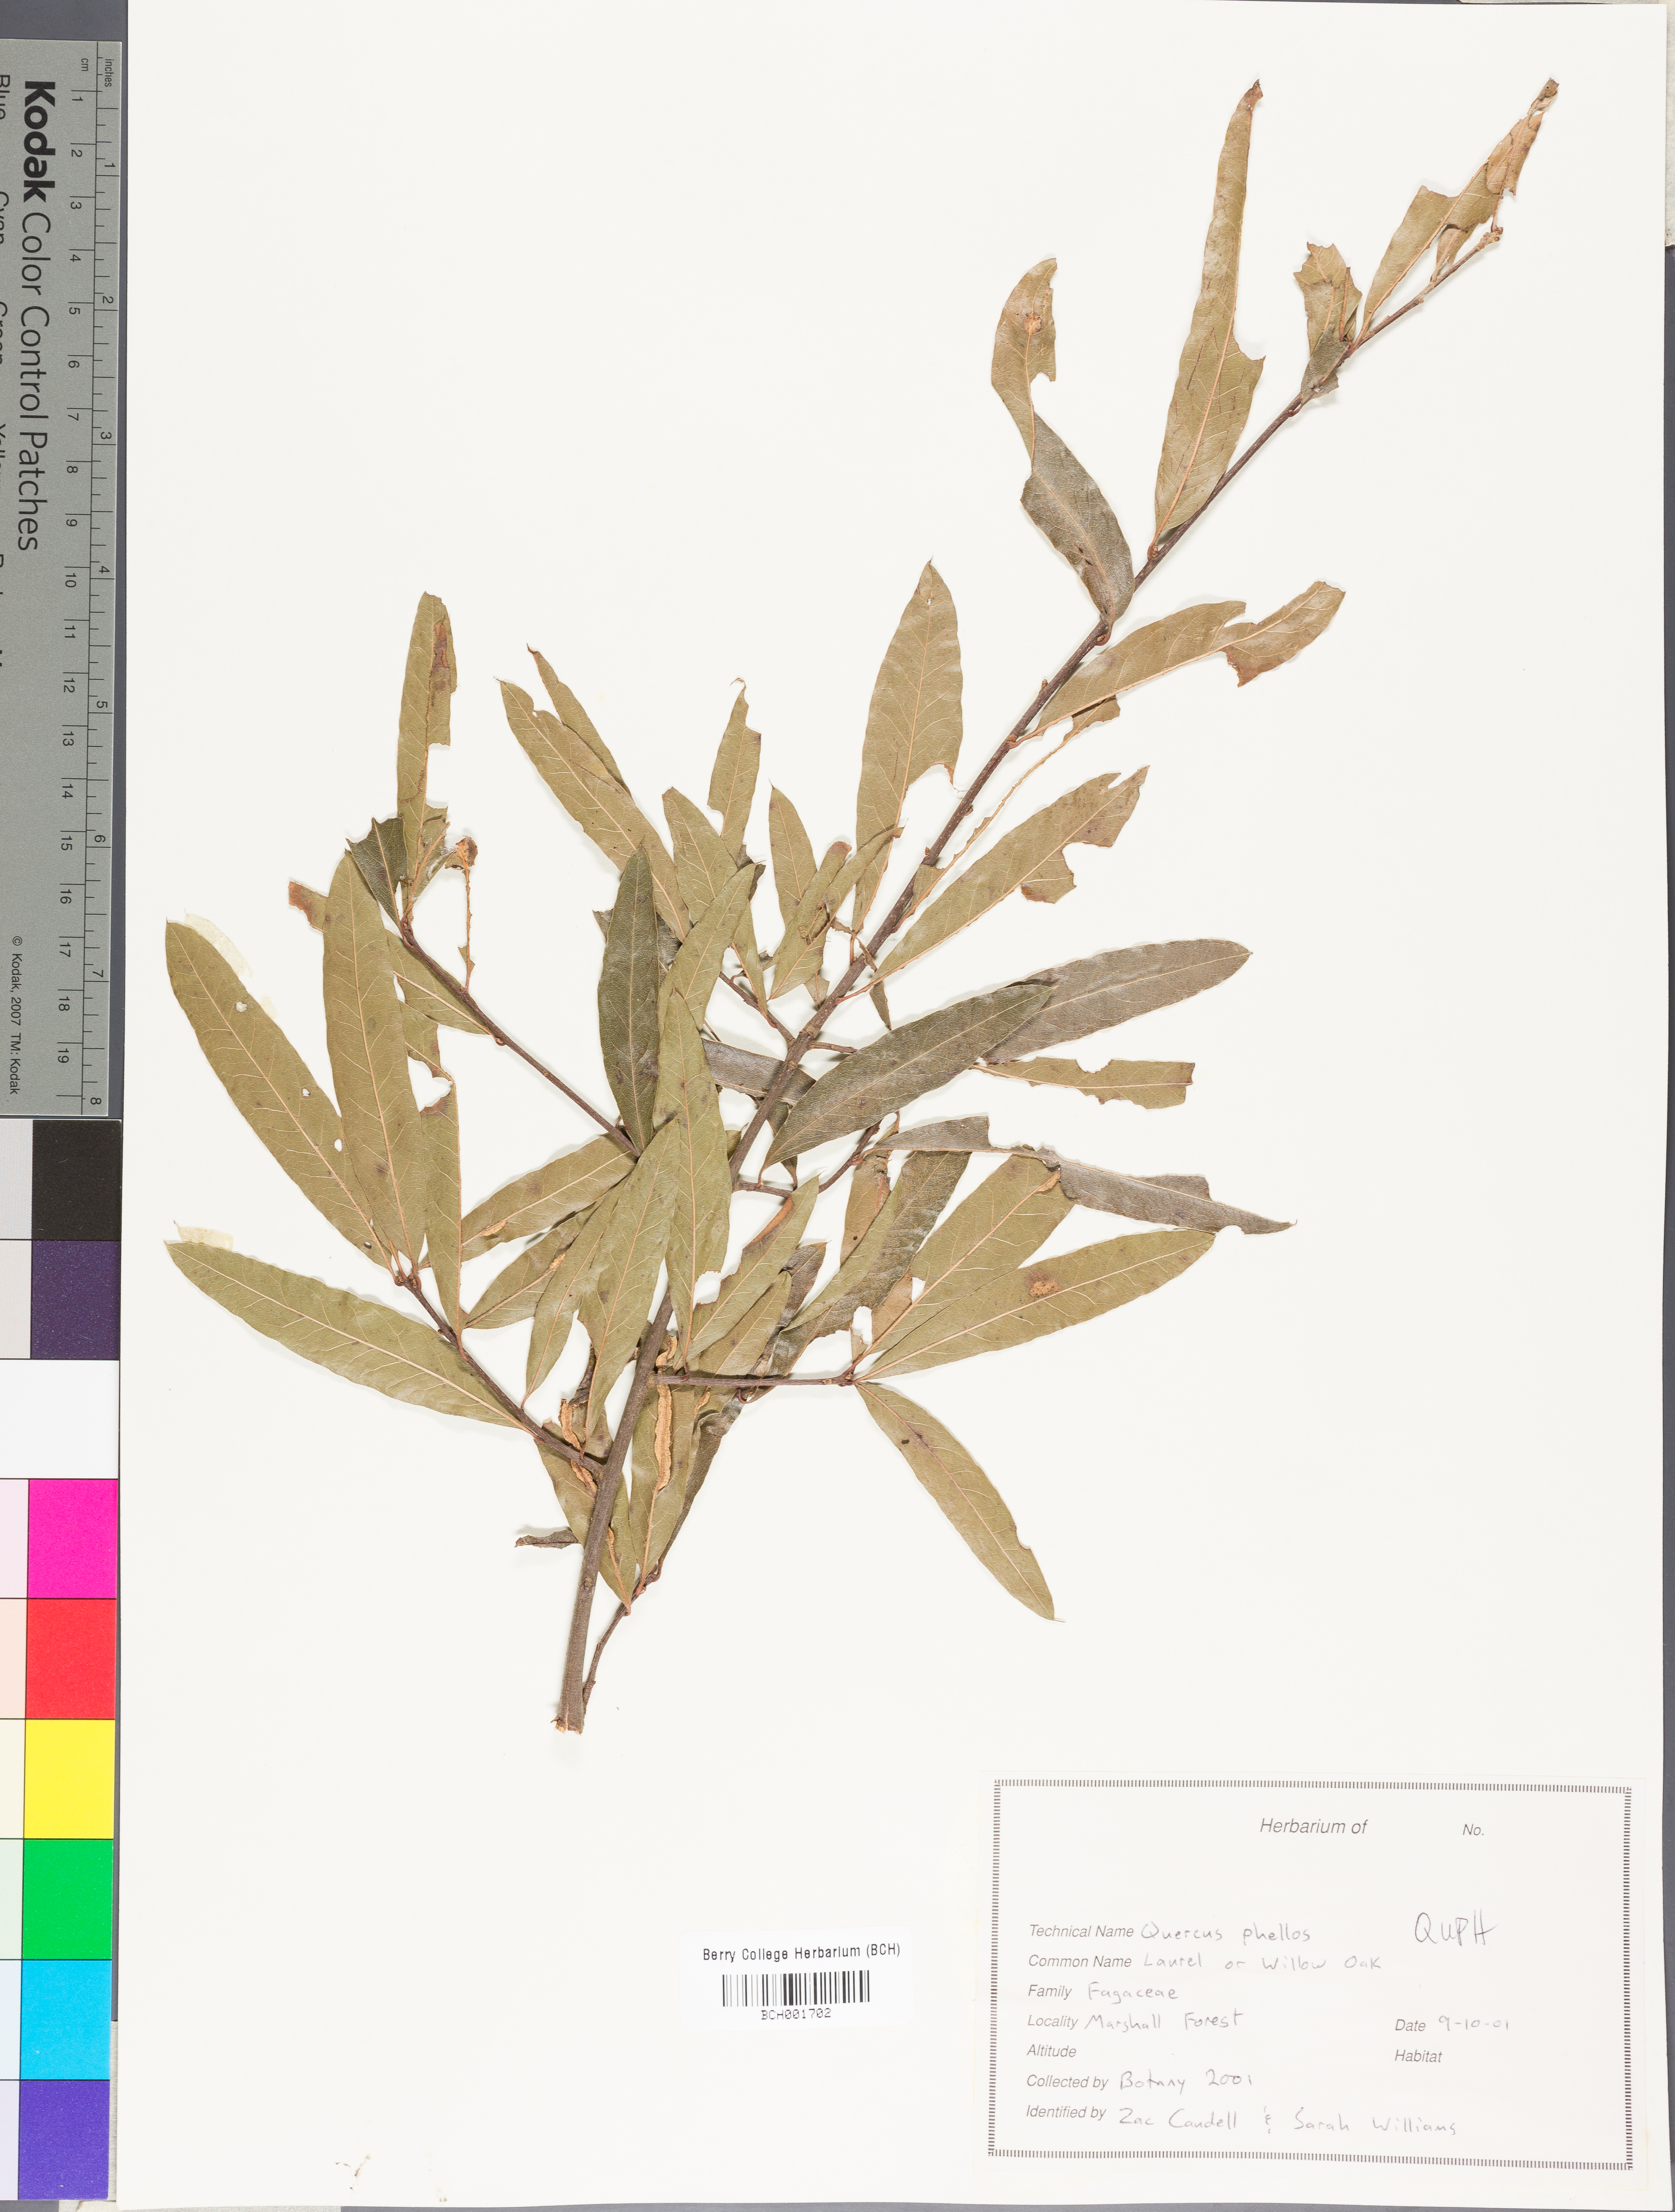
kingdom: Plantae
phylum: Tracheophyta
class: Magnoliopsida
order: Fagales
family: Fagaceae
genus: Quercus
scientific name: Quercus phellos
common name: Willow oak
